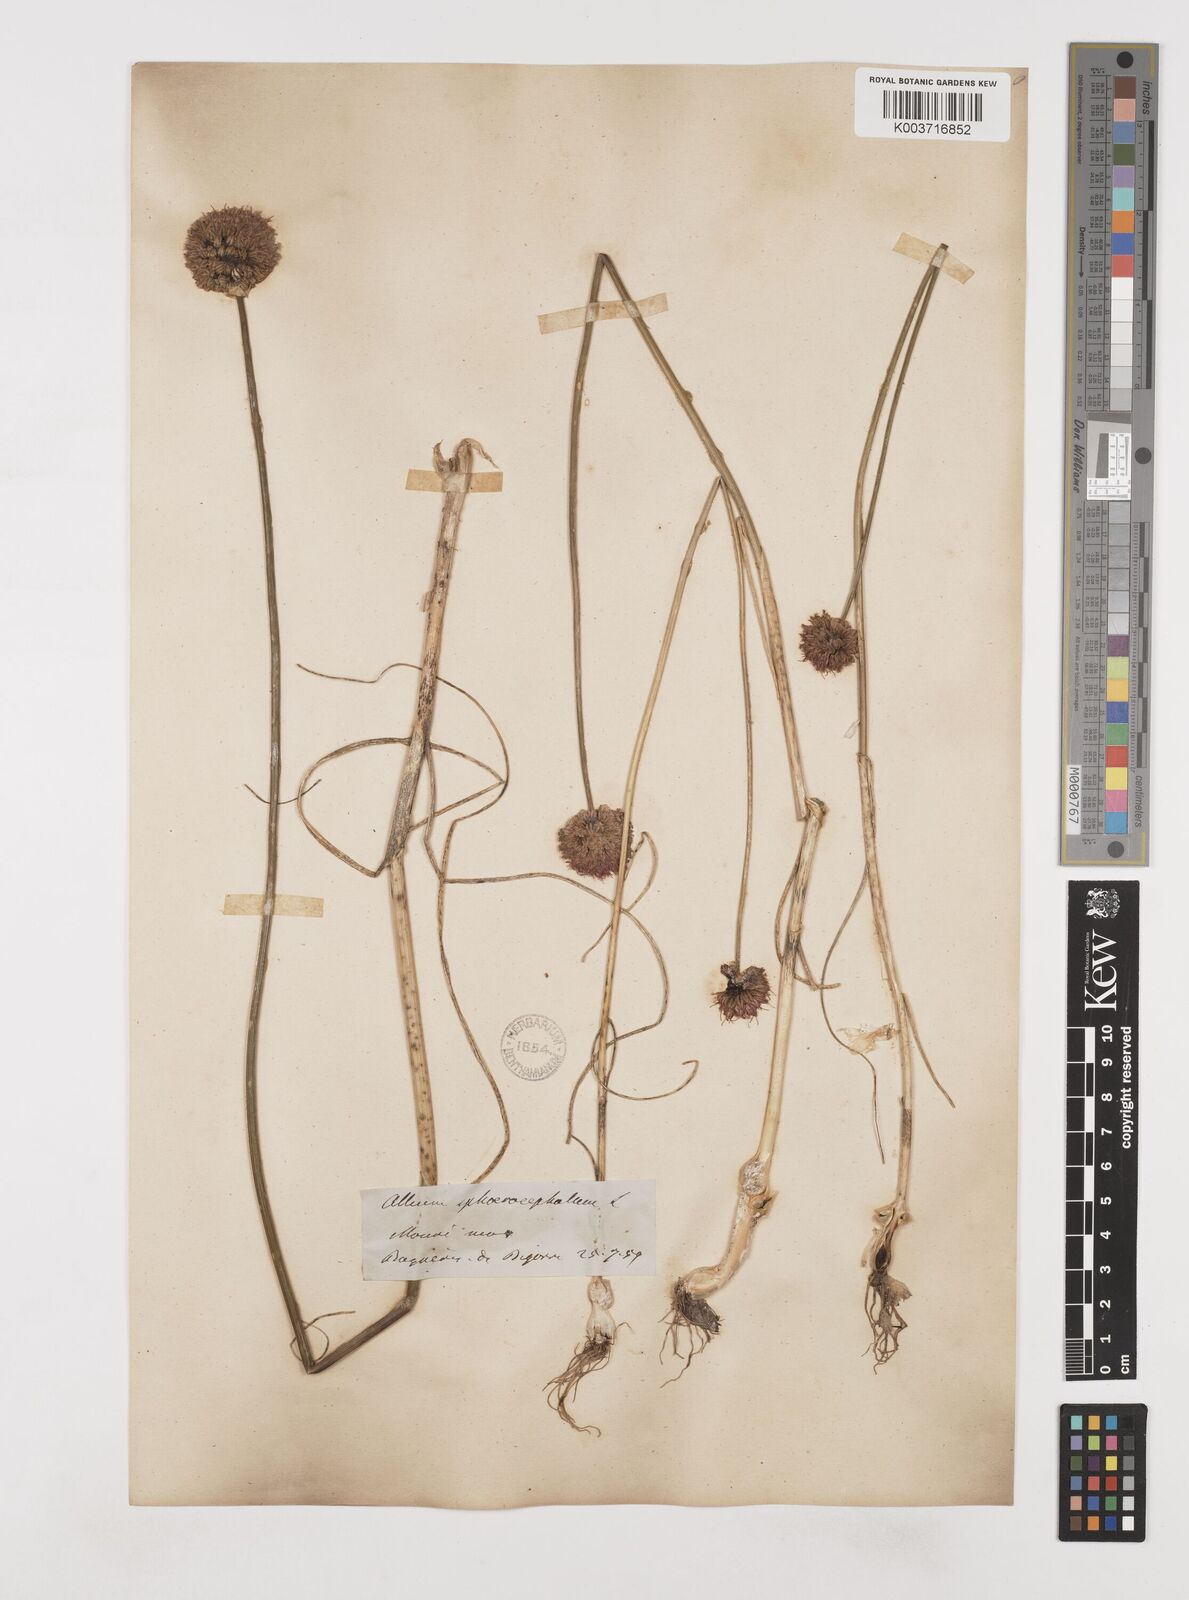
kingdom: Plantae
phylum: Tracheophyta
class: Liliopsida
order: Asparagales
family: Amaryllidaceae
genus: Allium
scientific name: Allium sphaerocephalon
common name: Round-headed leek
